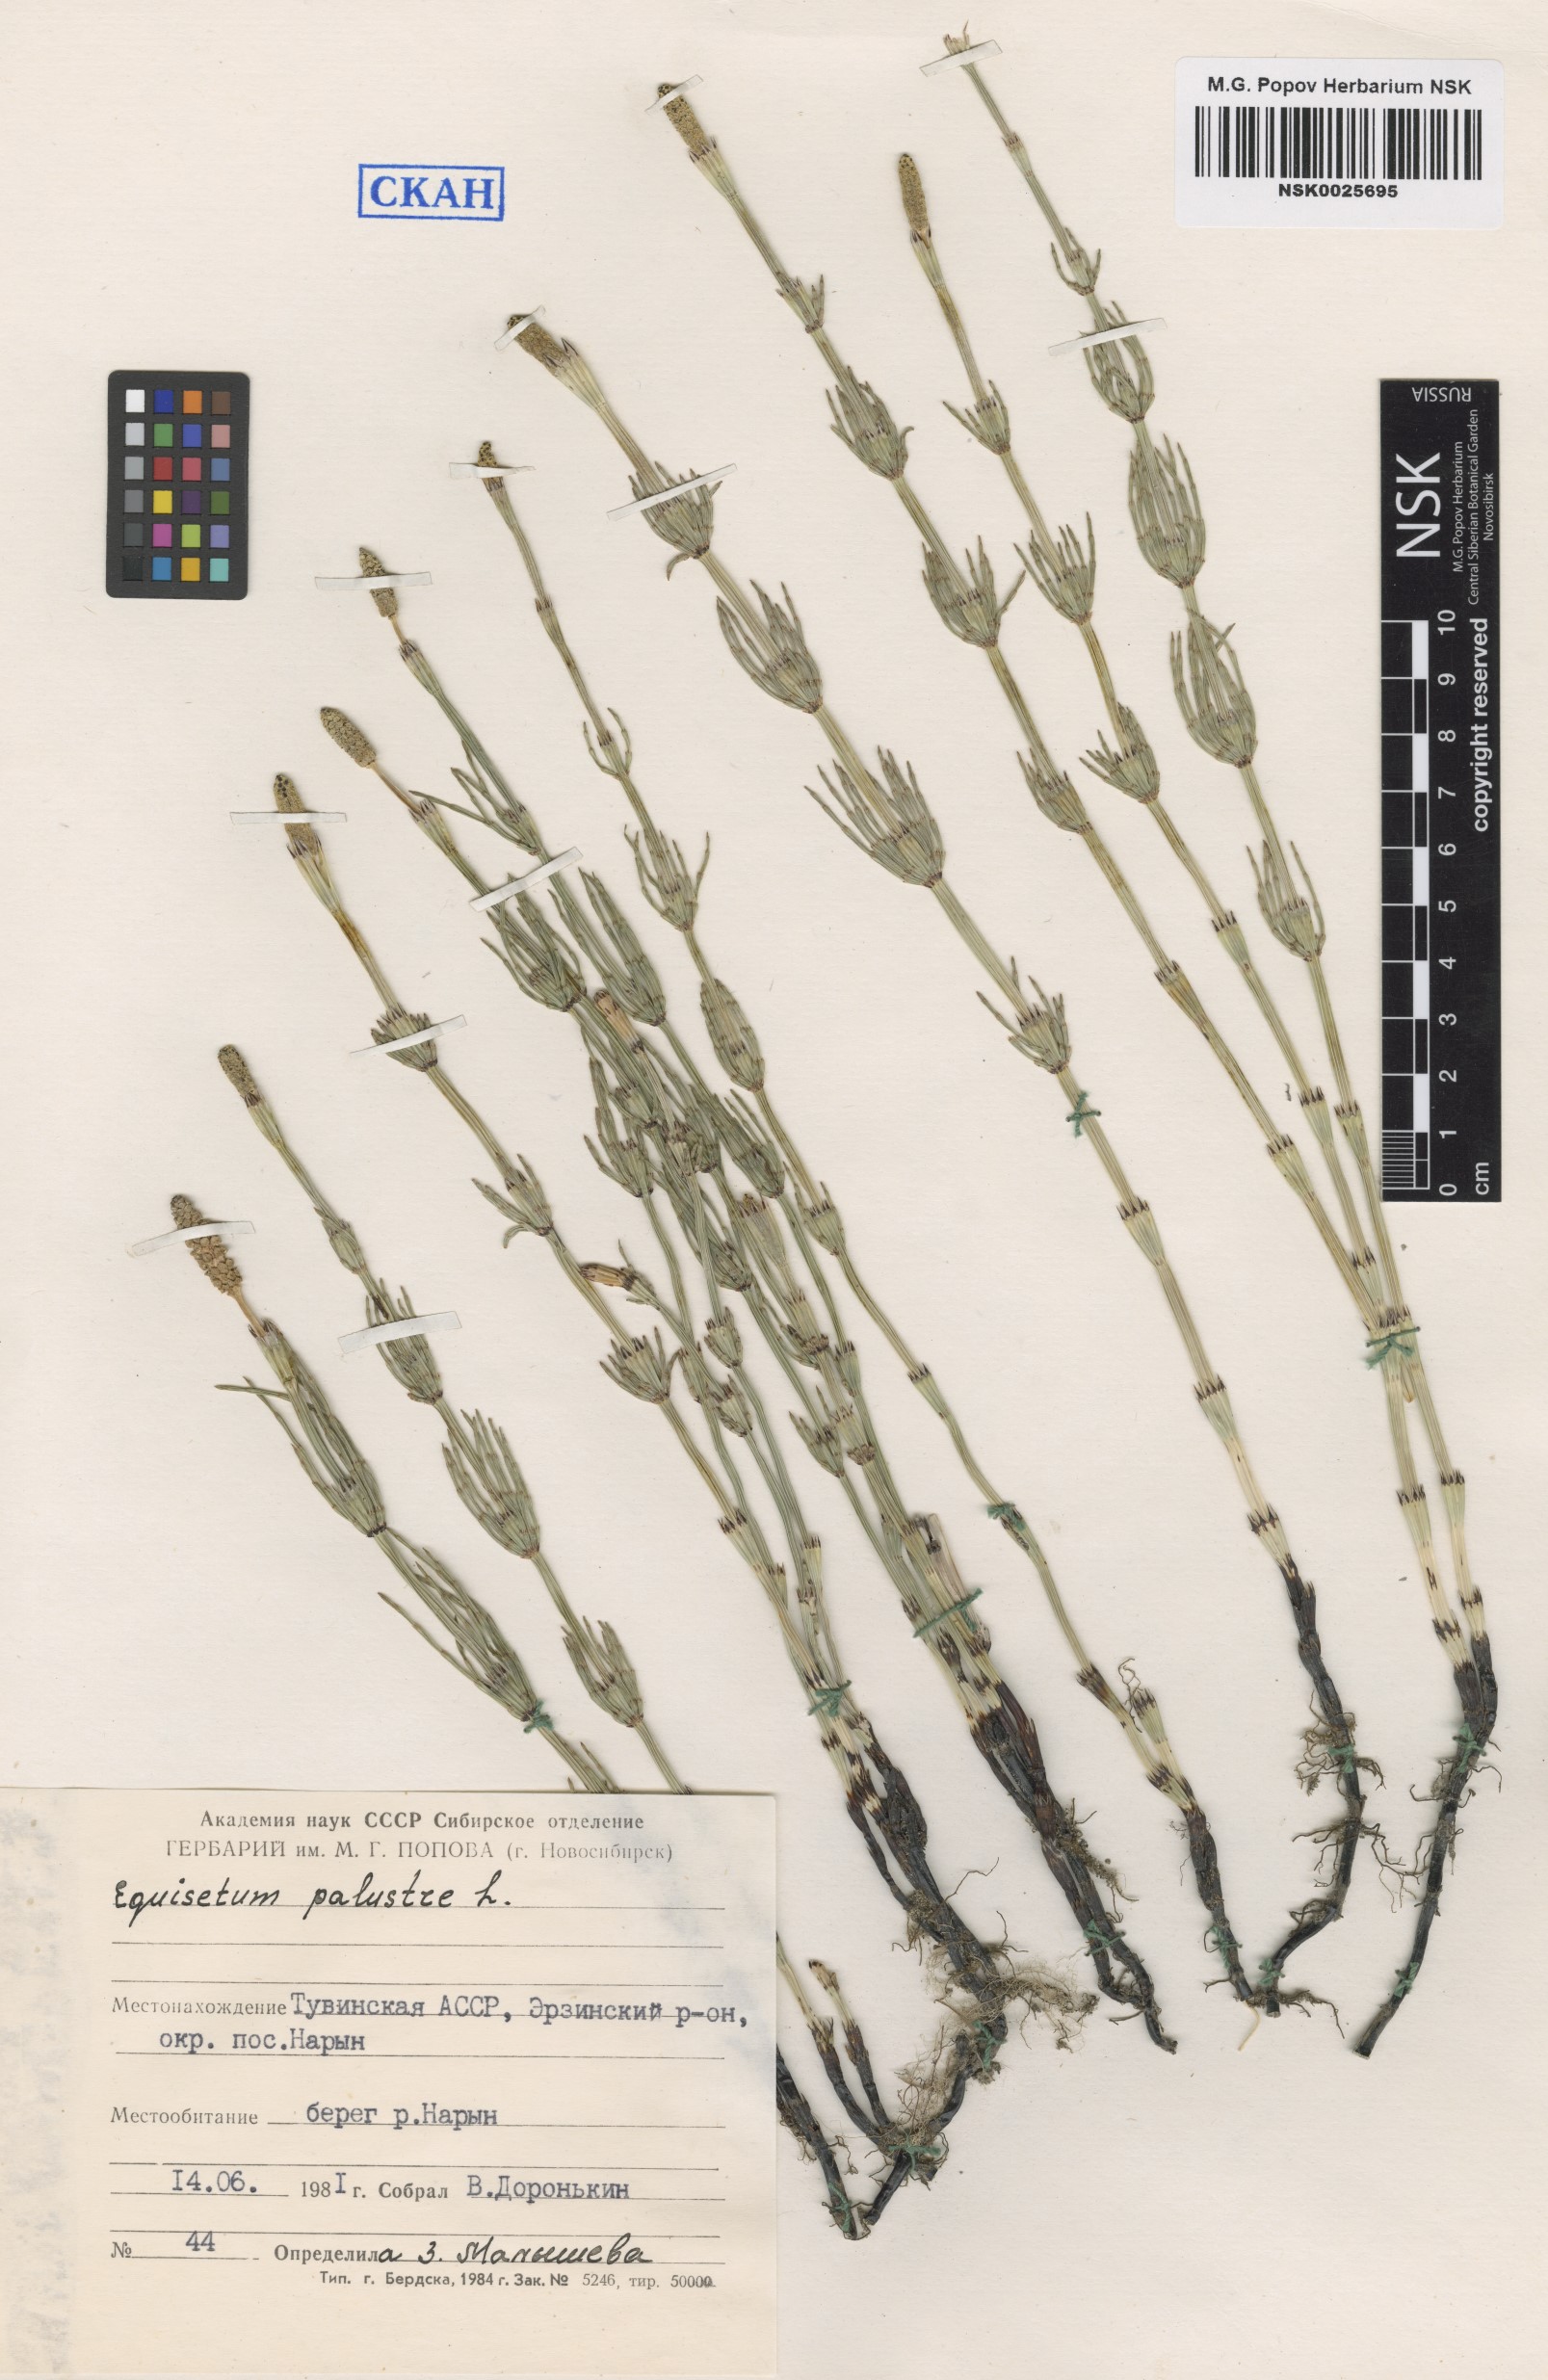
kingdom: Plantae
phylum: Tracheophyta
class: Polypodiopsida
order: Equisetales
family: Equisetaceae
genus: Equisetum
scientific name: Equisetum palustre
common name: Marsh horsetail
